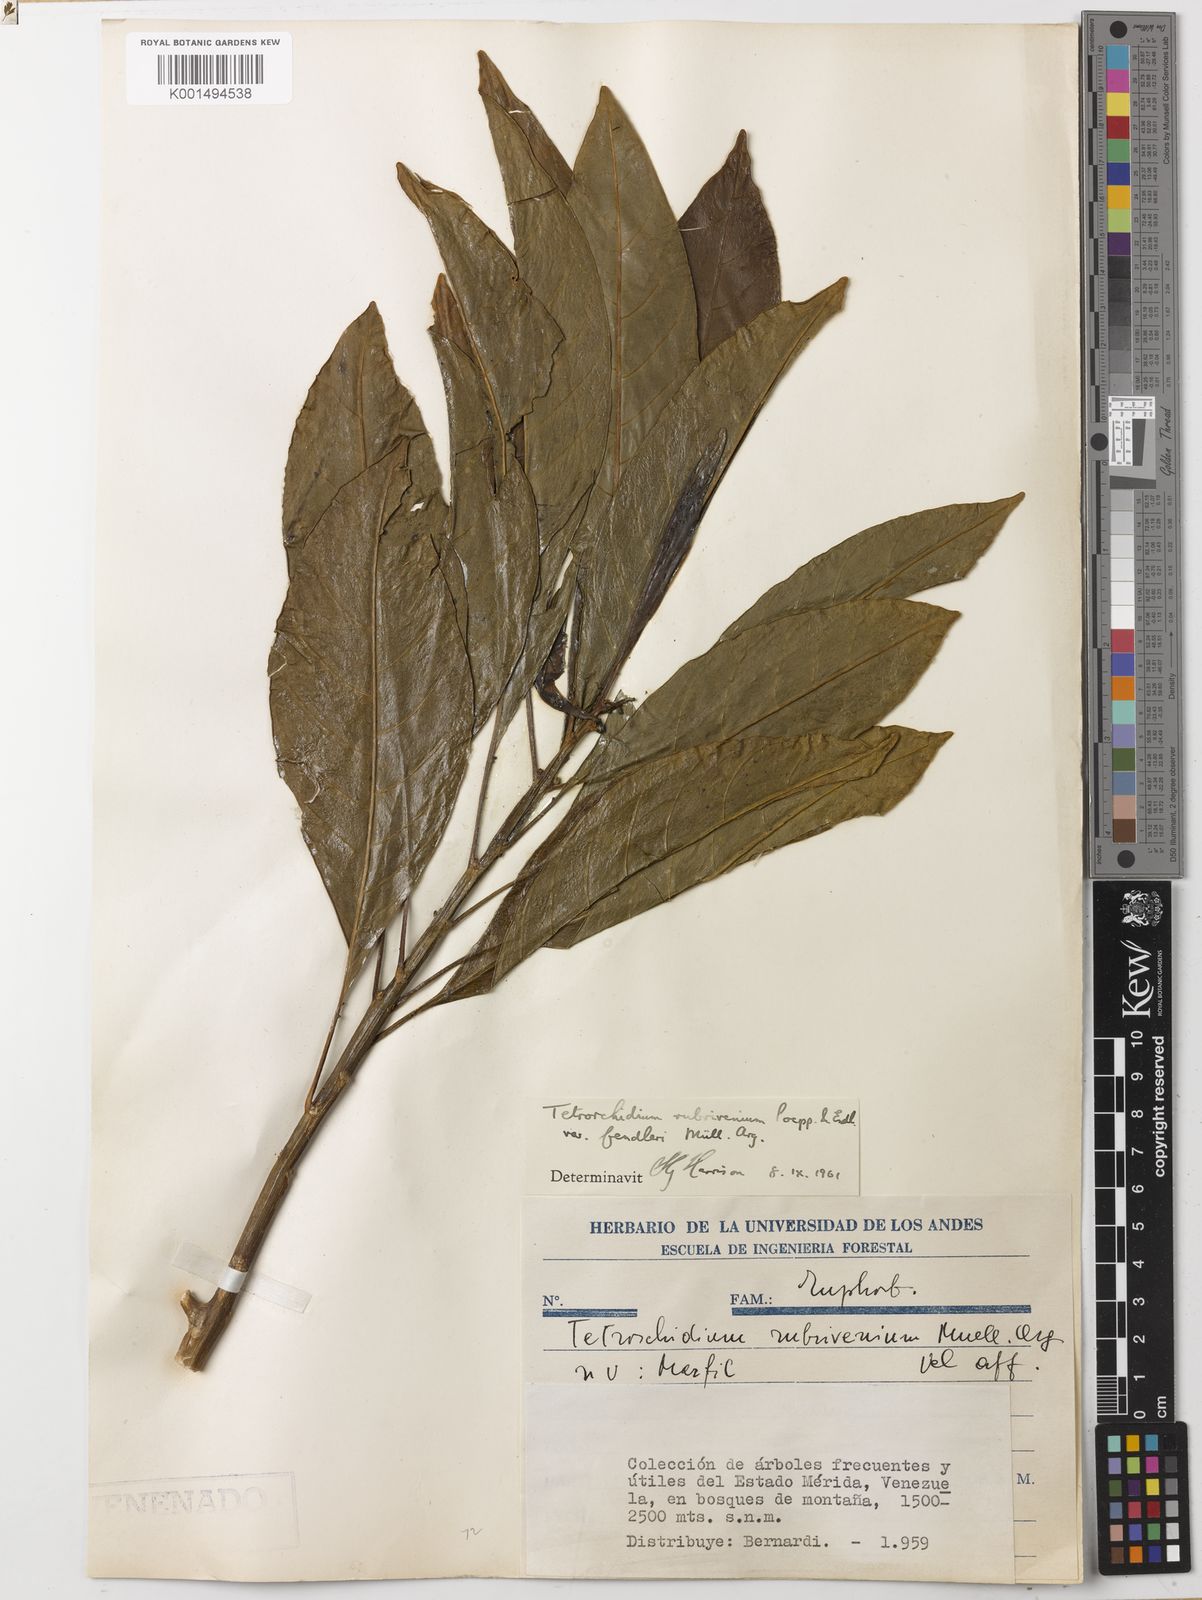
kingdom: Plantae
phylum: Tracheophyta
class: Magnoliopsida
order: Malpighiales
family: Euphorbiaceae
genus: Tetrorchidium
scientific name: Tetrorchidium rubrivenium
